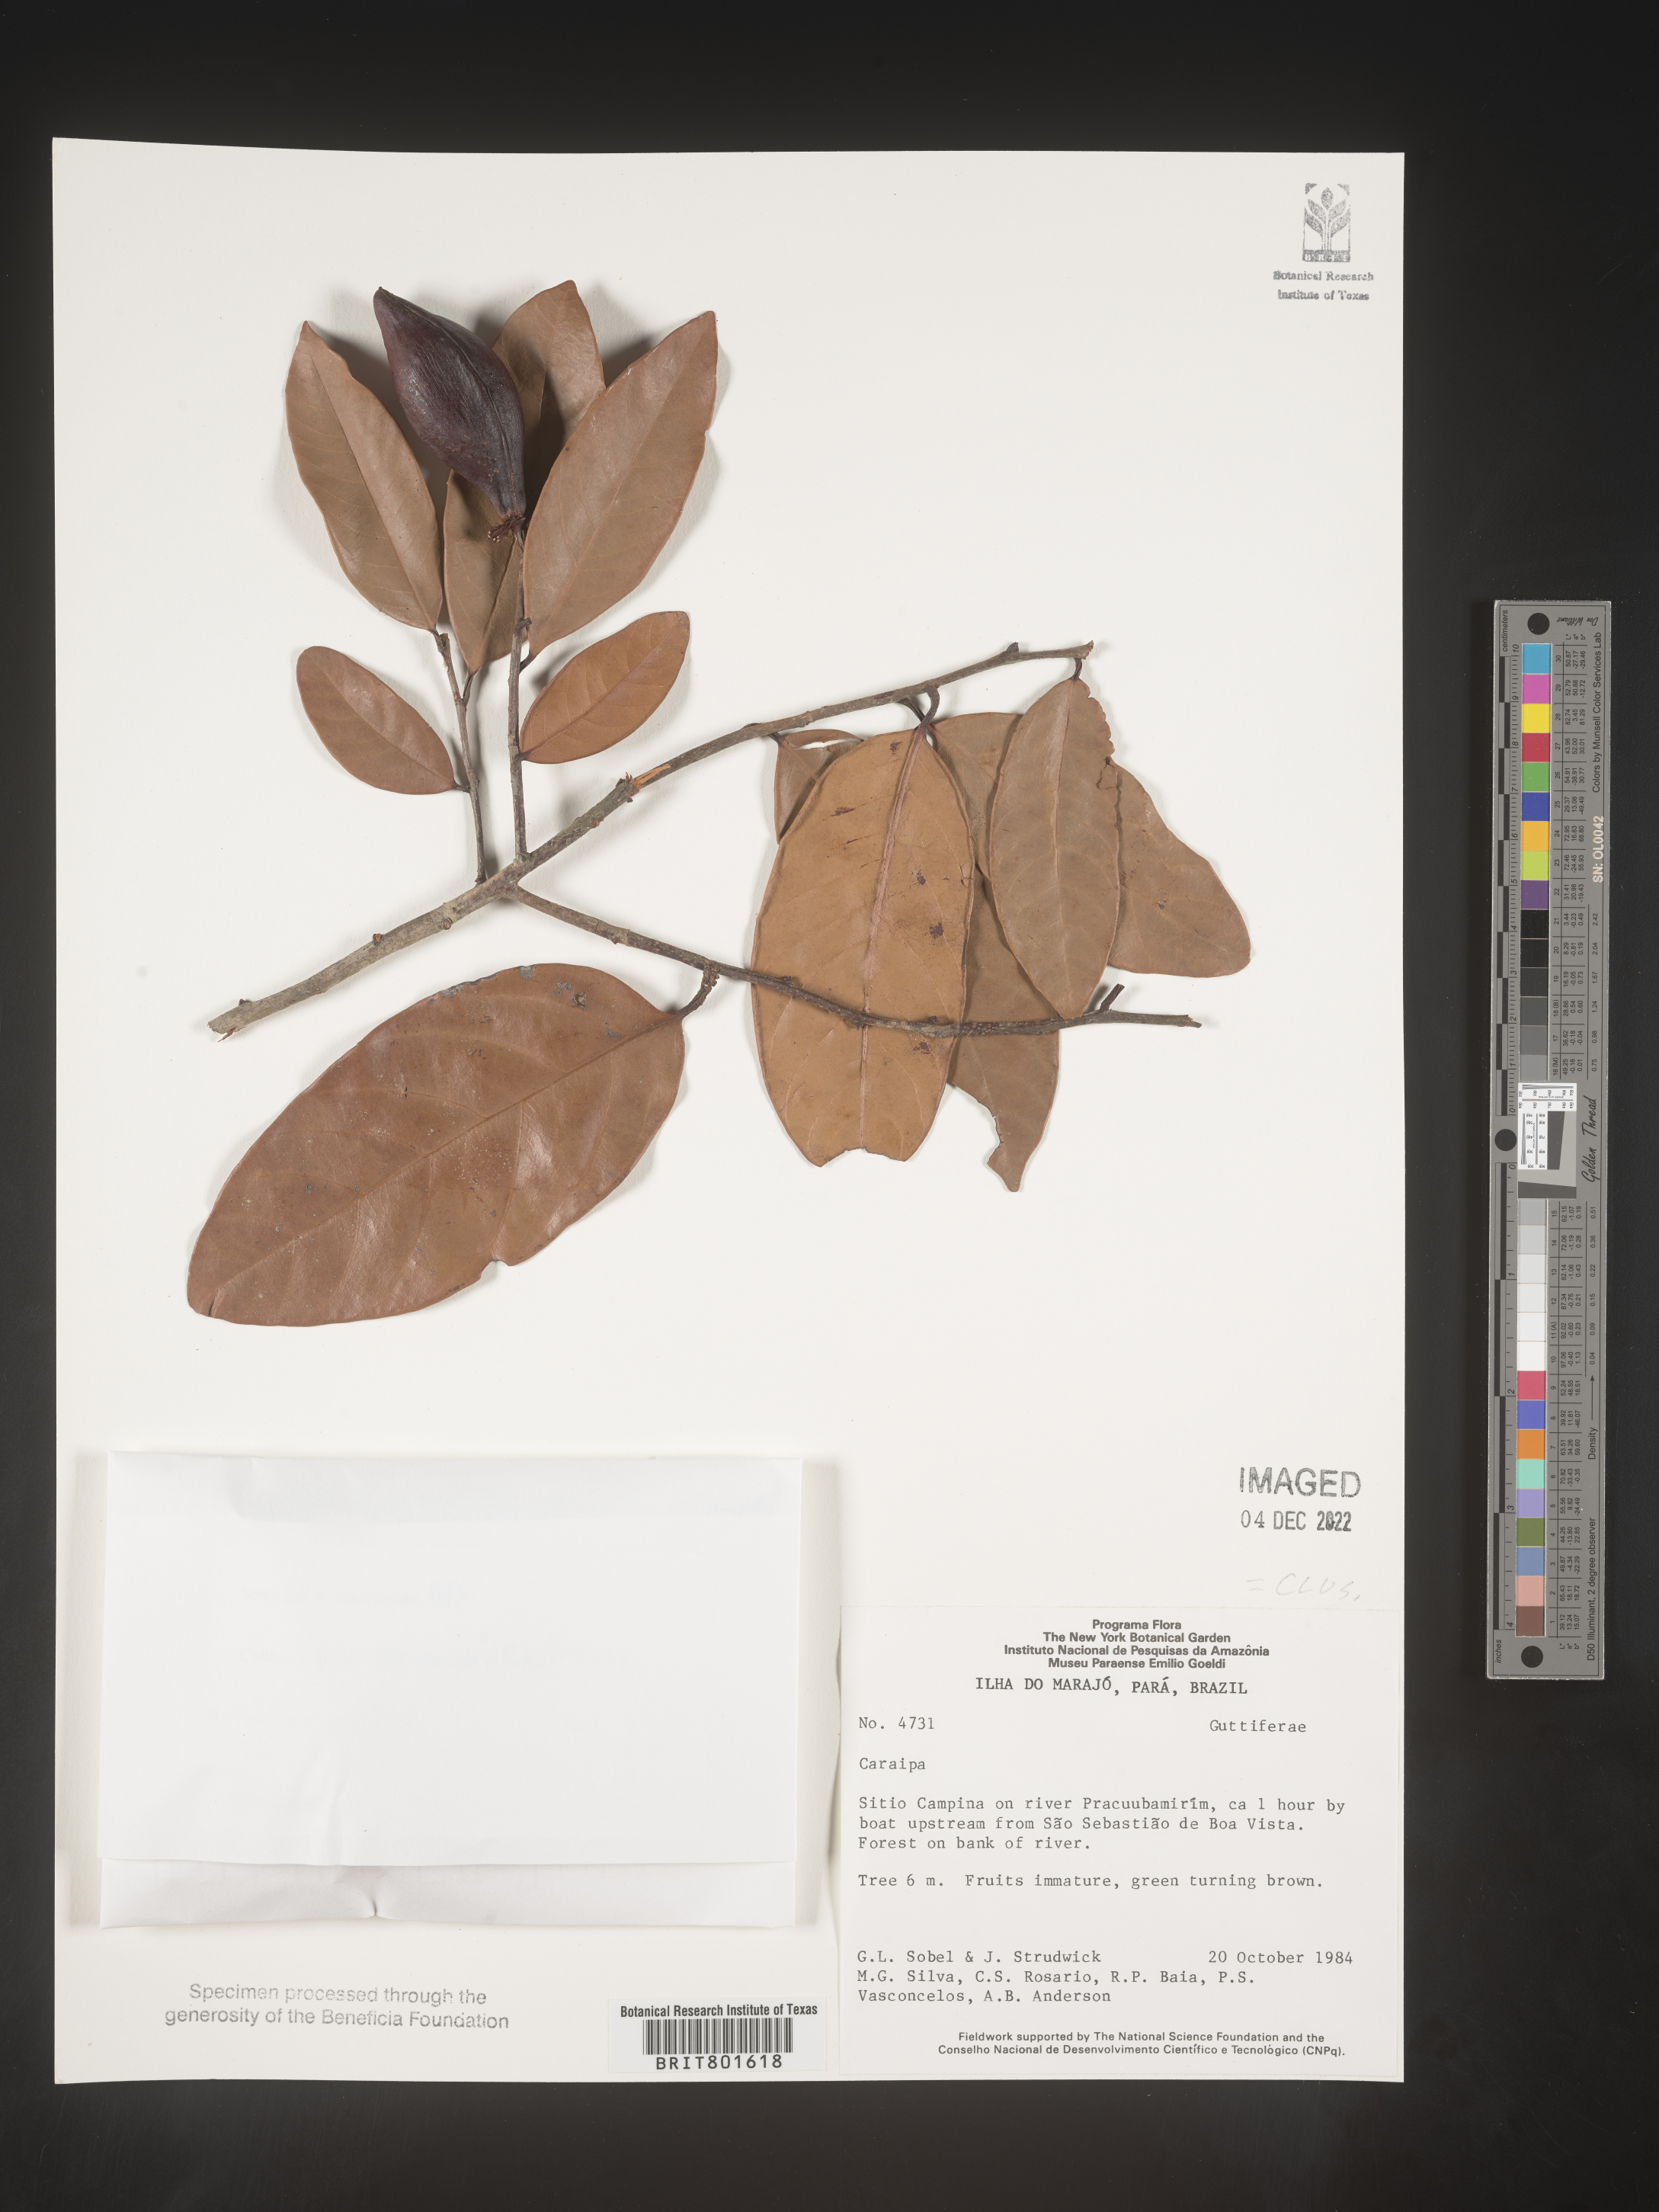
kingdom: Plantae
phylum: Tracheophyta
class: Magnoliopsida
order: Malpighiales
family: Calophyllaceae
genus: Caraipa
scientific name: Caraipa
